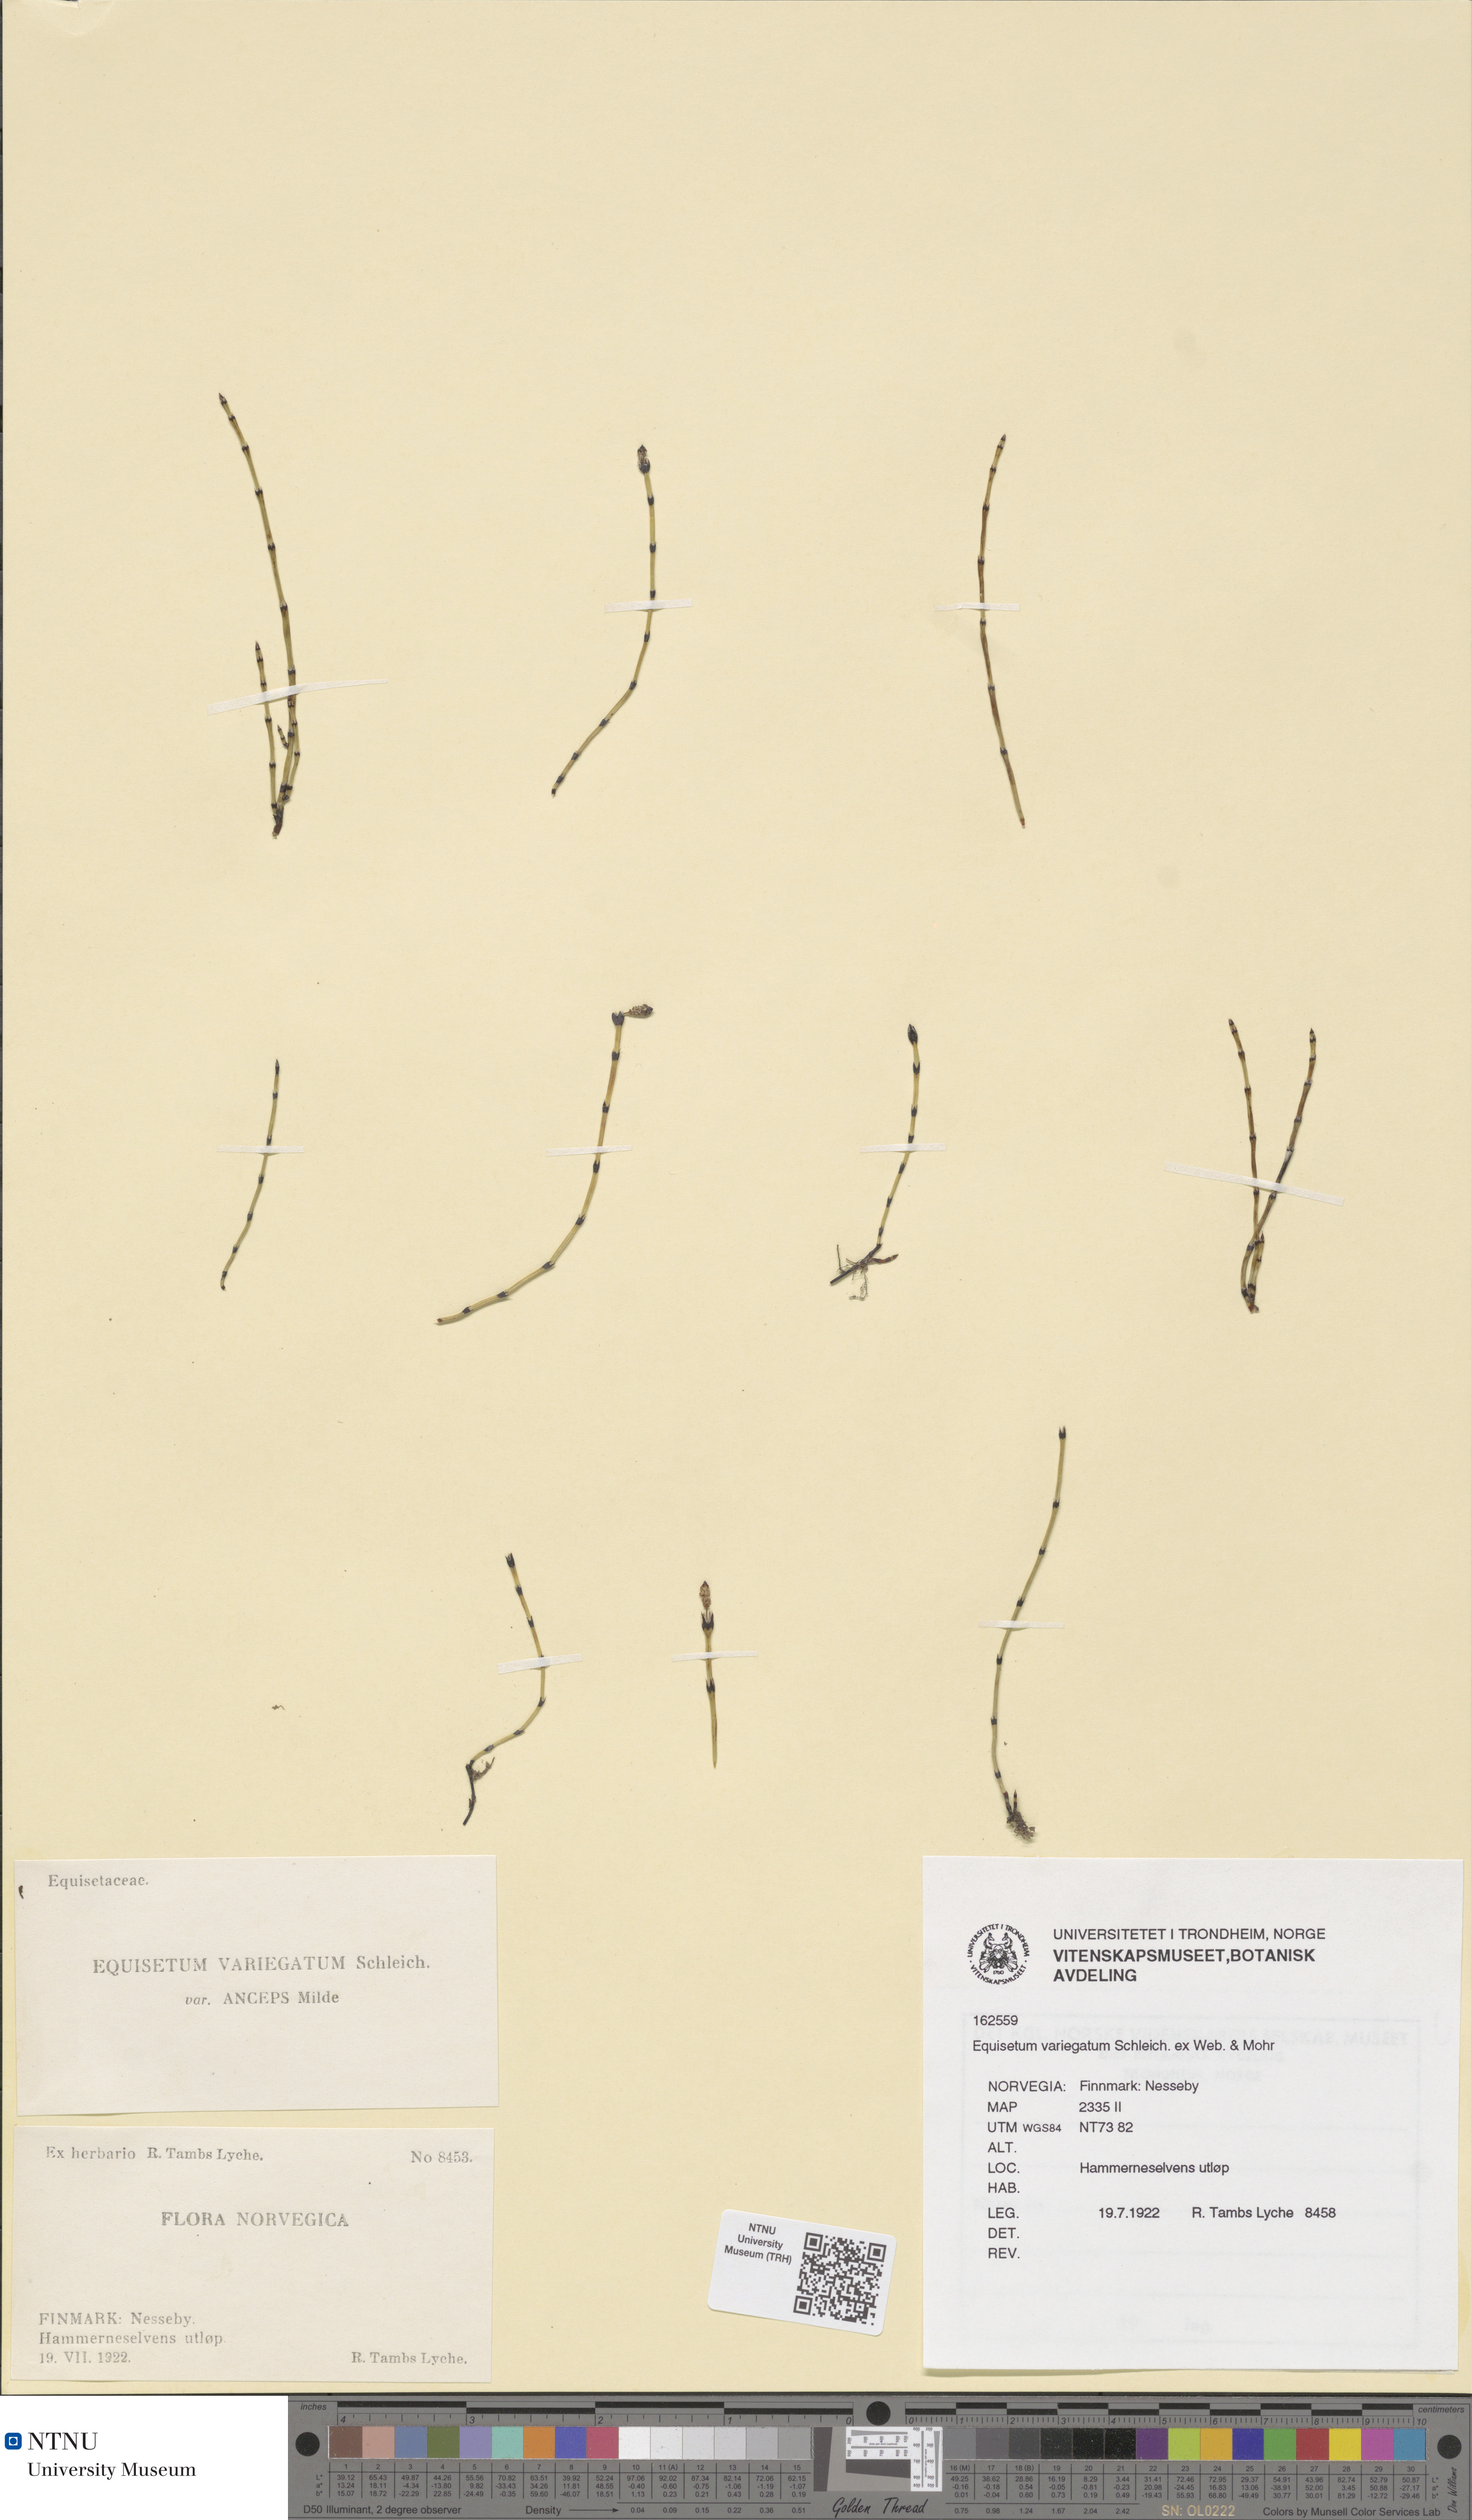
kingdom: Plantae
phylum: Tracheophyta
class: Polypodiopsida
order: Equisetales
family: Equisetaceae
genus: Equisetum
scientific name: Equisetum variegatum
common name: Variegated horsetail
